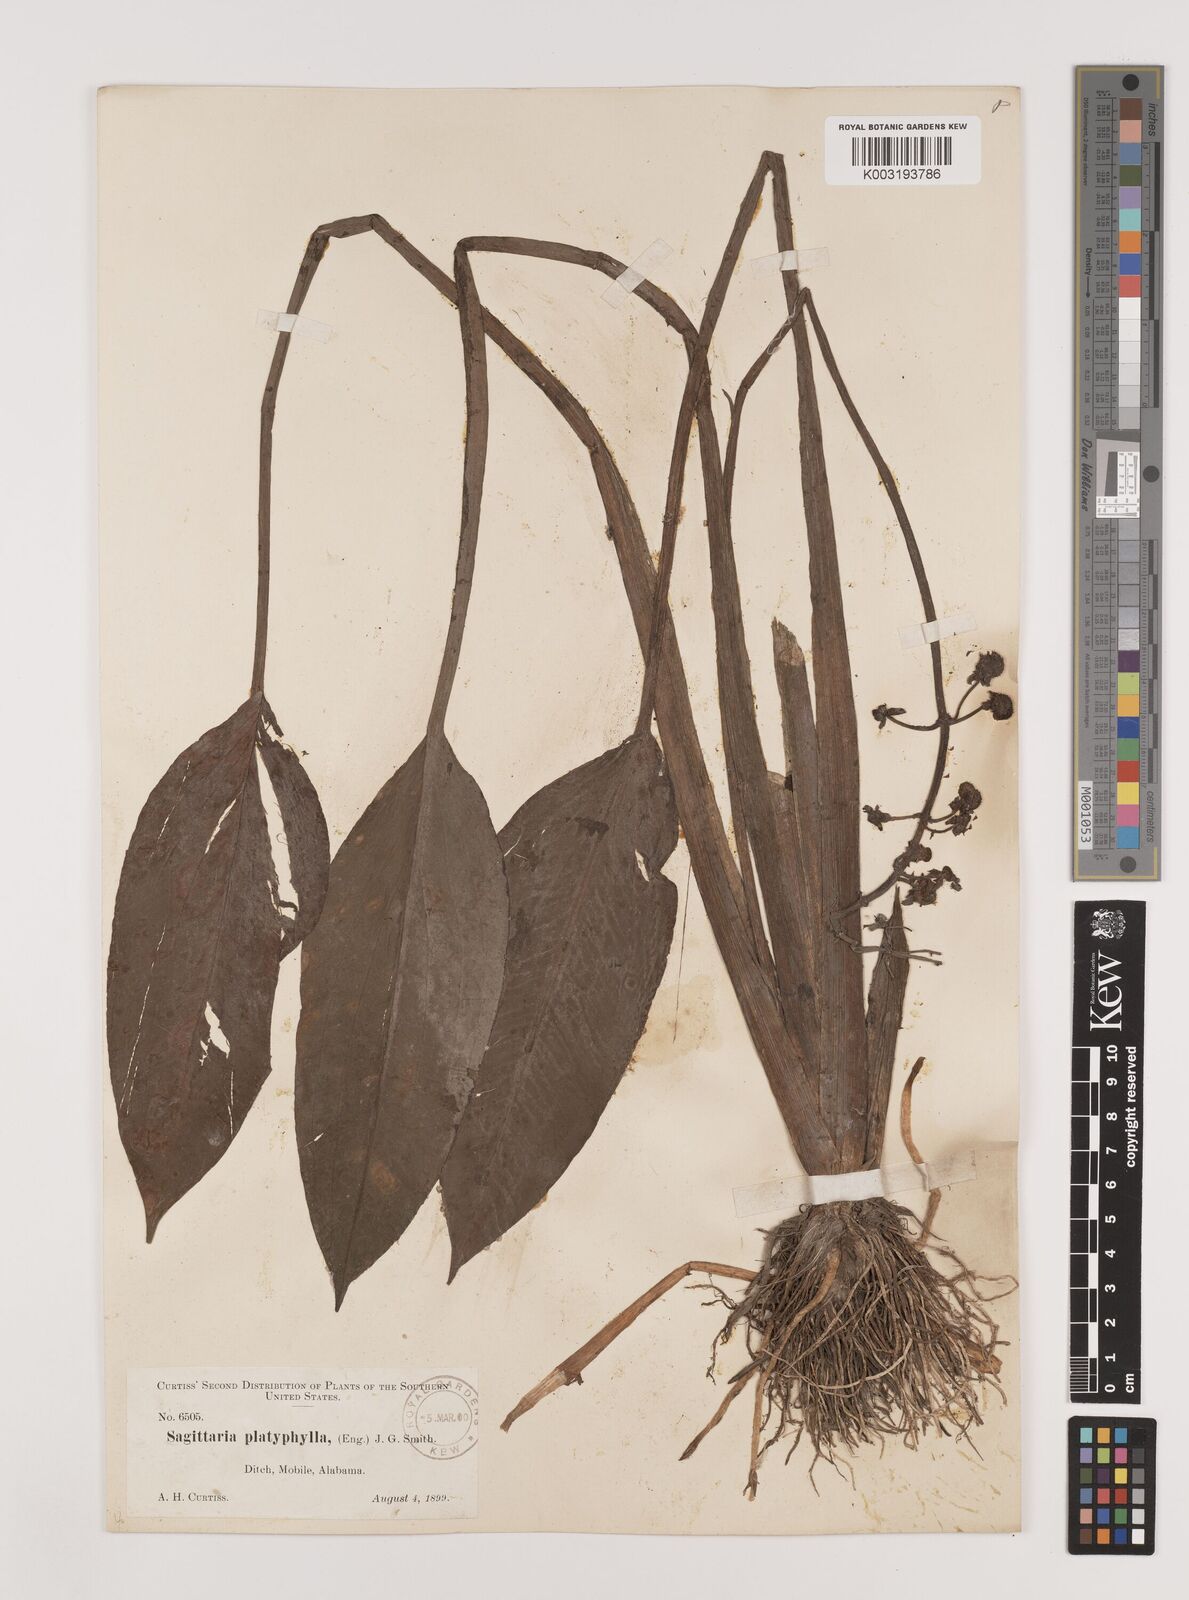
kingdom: Plantae
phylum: Tracheophyta
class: Liliopsida
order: Alismatales
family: Alismataceae
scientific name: Alismataceae
